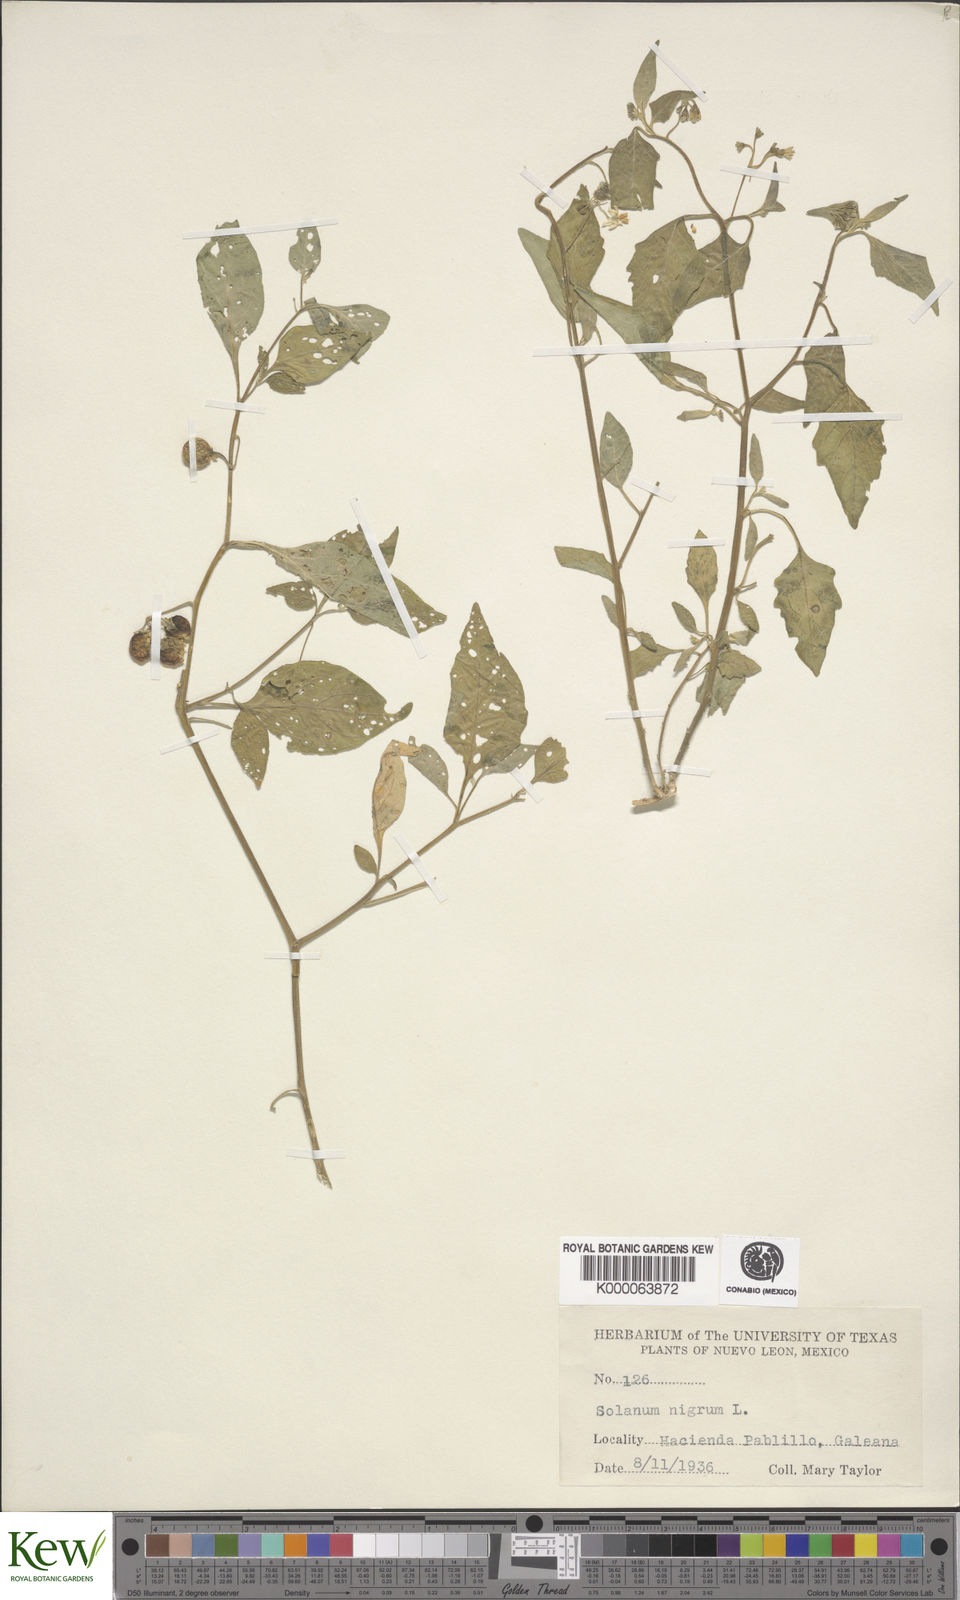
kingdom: Plantae
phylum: Tracheophyta
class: Magnoliopsida
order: Solanales
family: Solanaceae
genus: Solanum
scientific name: Solanum nigrum
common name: Black nightshade
